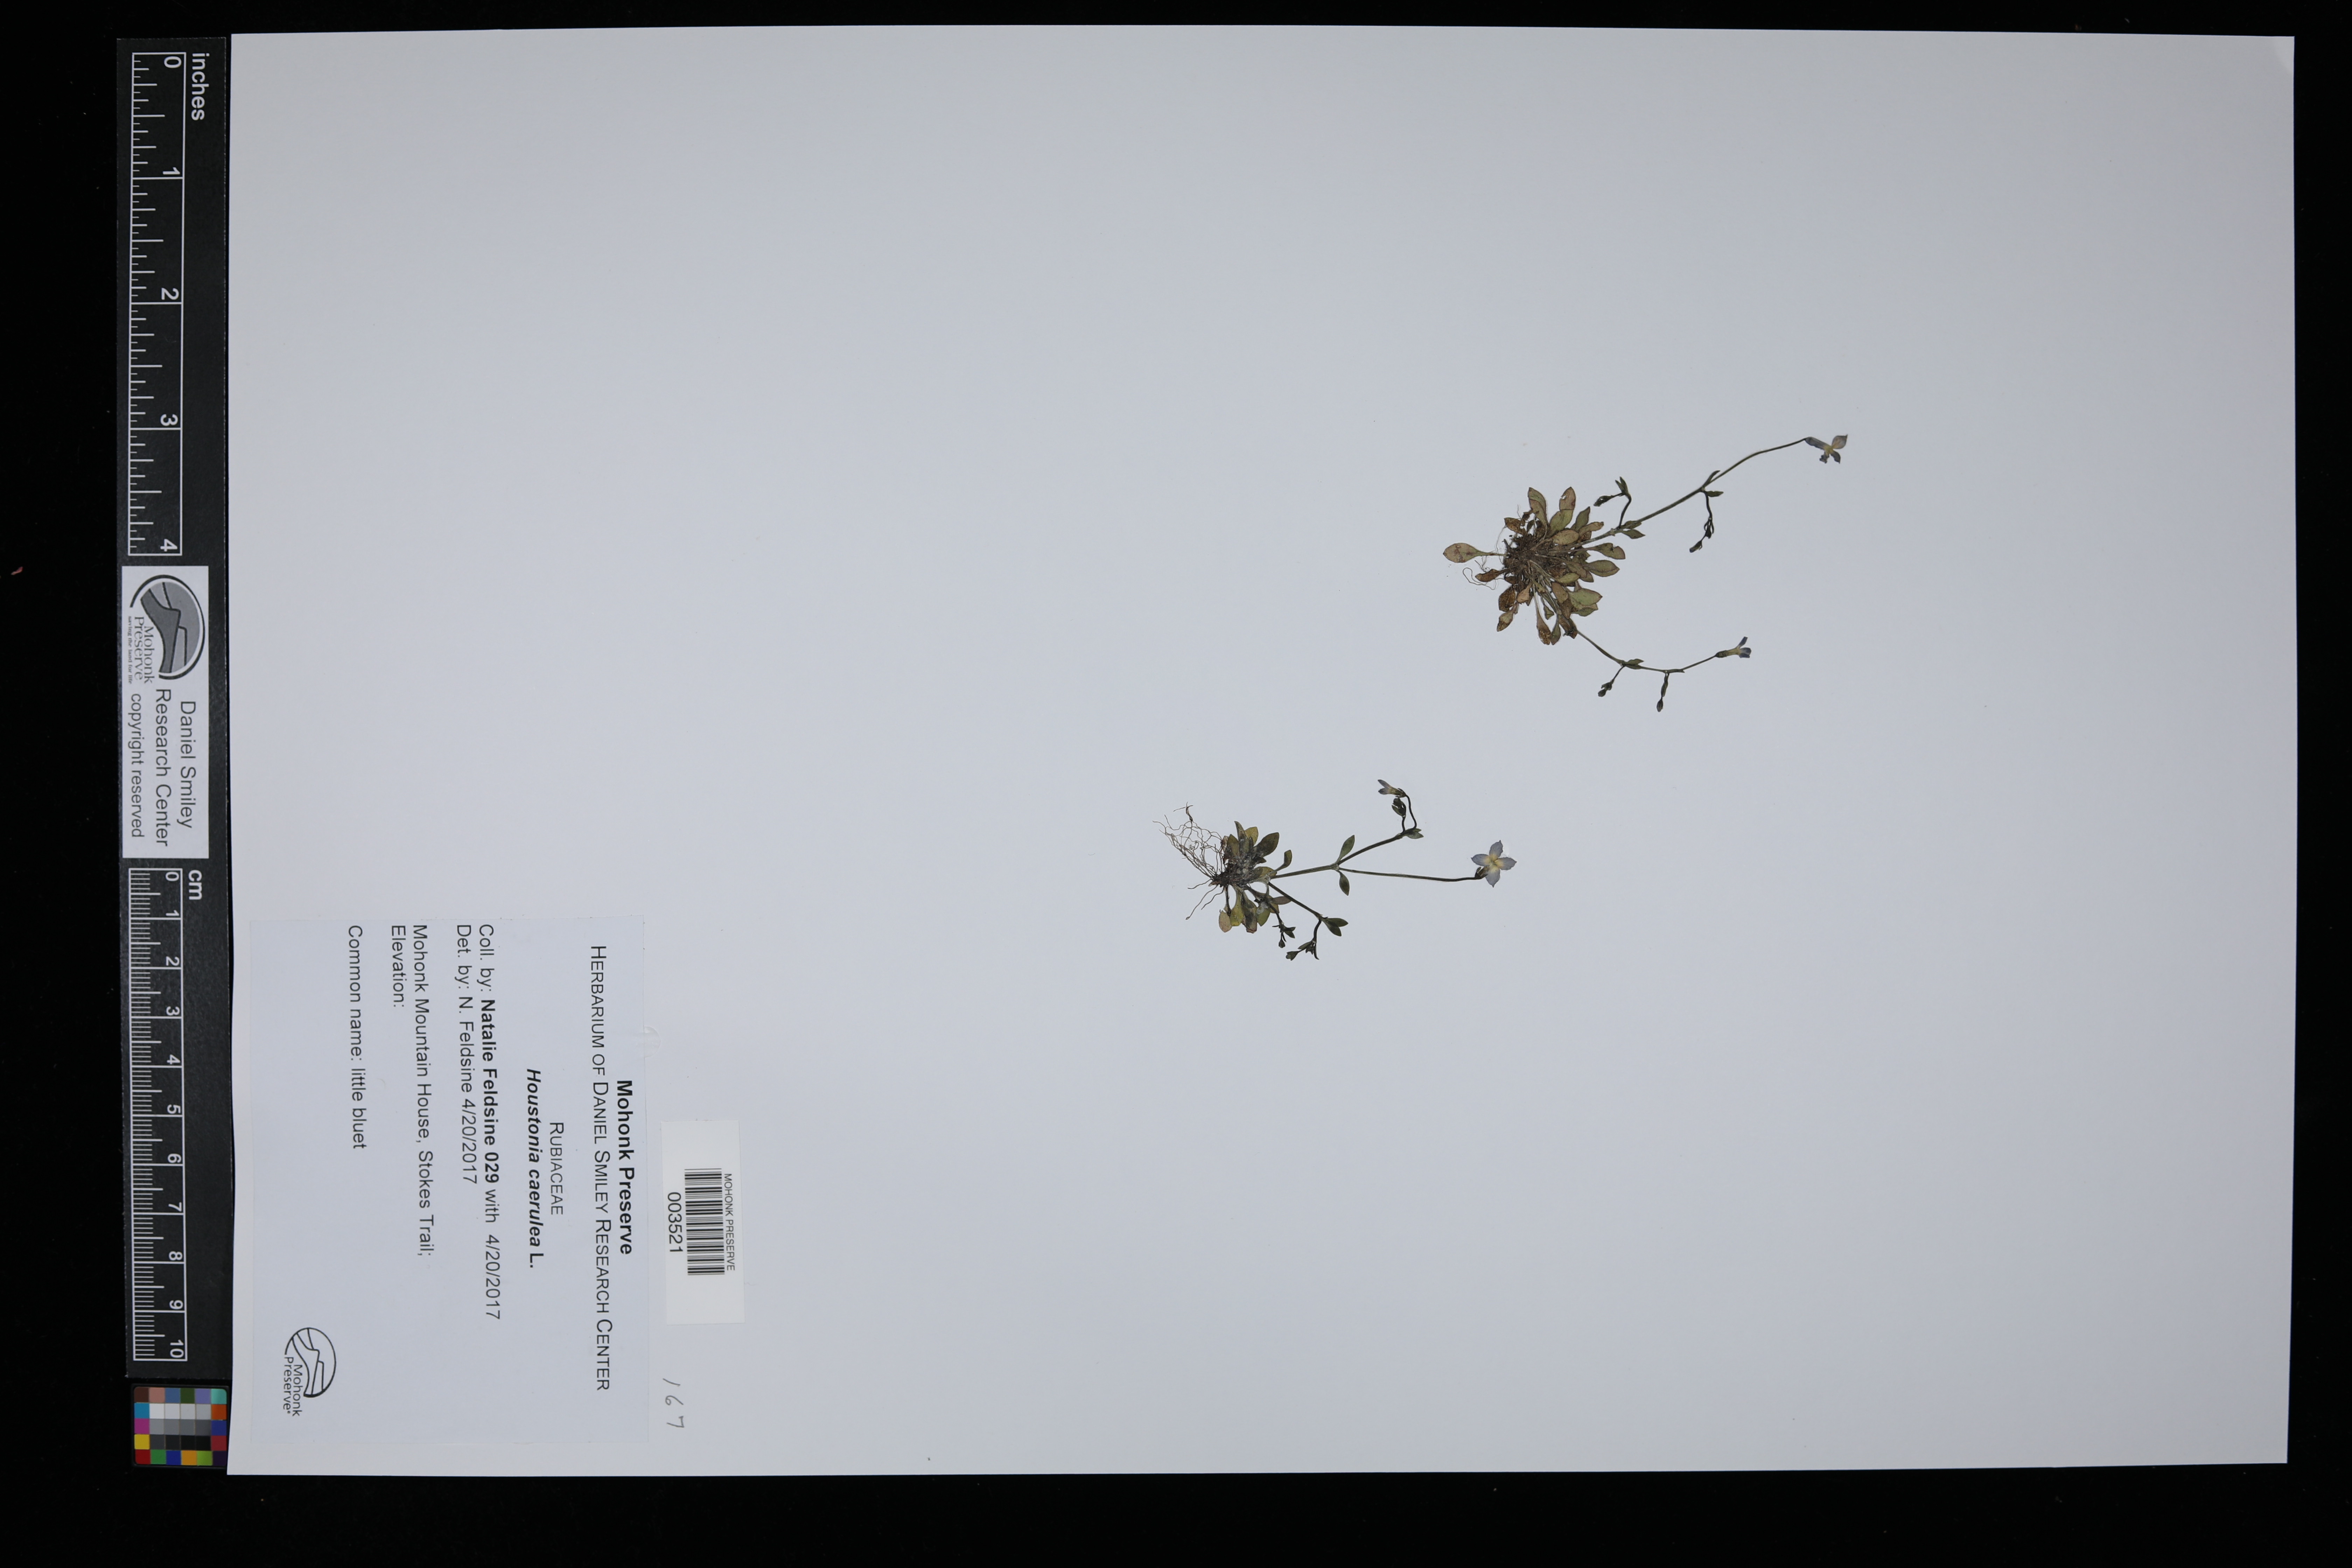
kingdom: Plantae
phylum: Tracheophyta
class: Magnoliopsida
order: Gentianales
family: Rubiaceae
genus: Houstonia
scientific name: Houstonia caerulea
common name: Bluets
